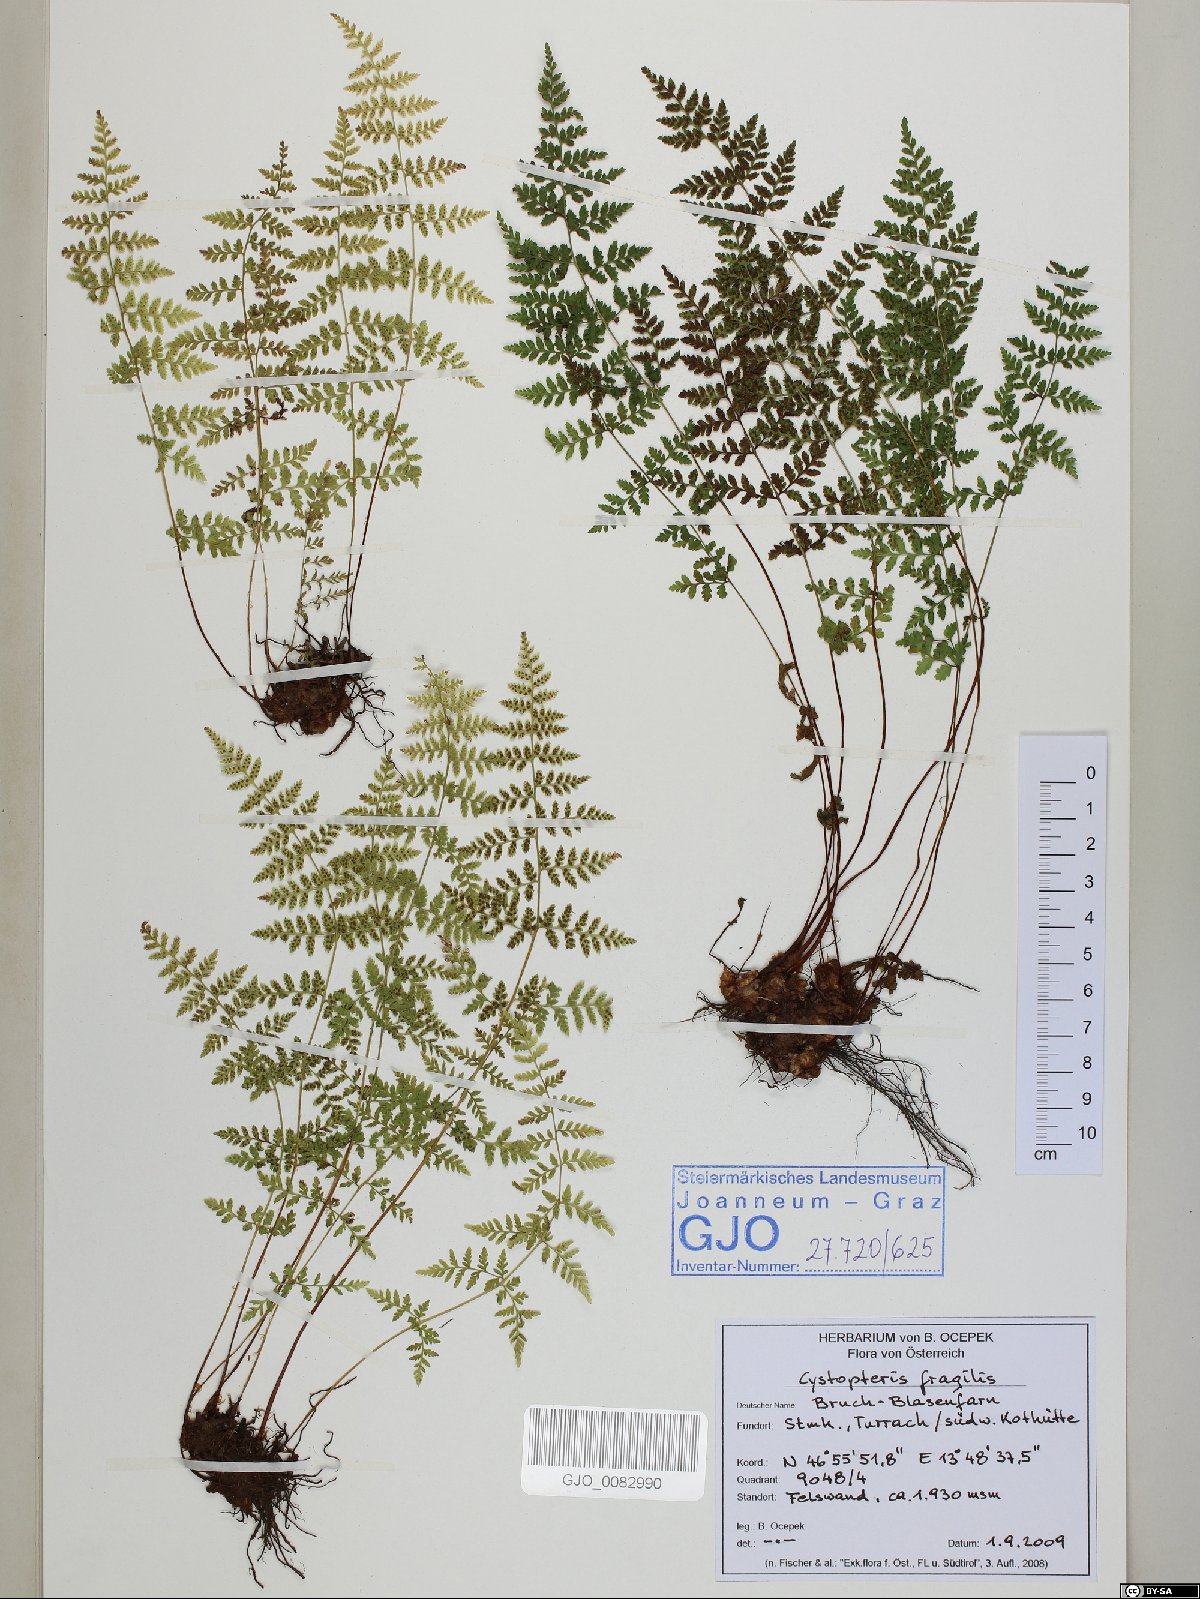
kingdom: Plantae
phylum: Tracheophyta
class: Polypodiopsida
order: Polypodiales
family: Cystopteridaceae
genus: Cystopteris
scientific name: Cystopteris fragilis
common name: Brittle bladder fern
